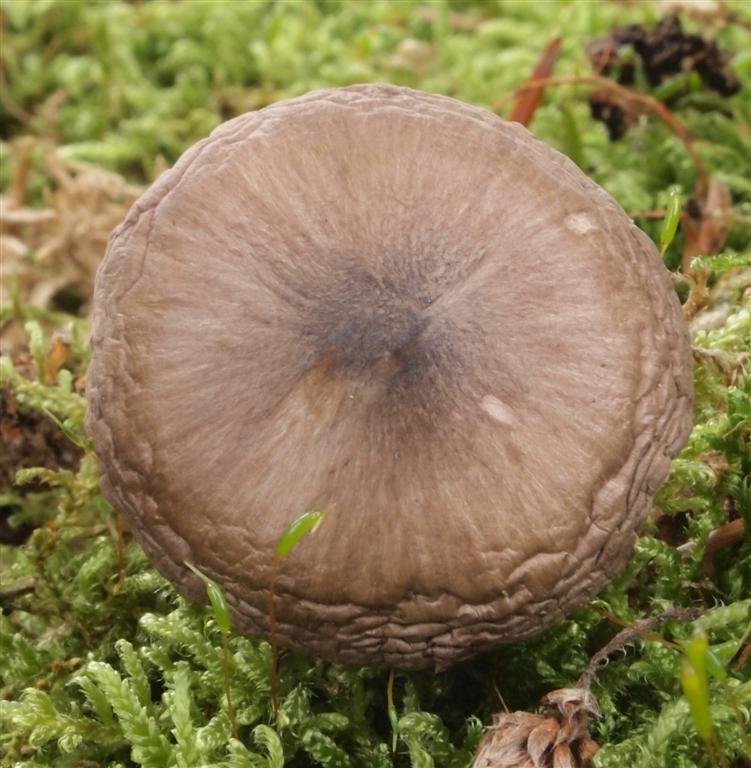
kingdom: Fungi
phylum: Basidiomycota
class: Agaricomycetes
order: Agaricales
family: Pluteaceae
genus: Pluteus
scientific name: Pluteus cervinus
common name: sodfarvet skærmhat
